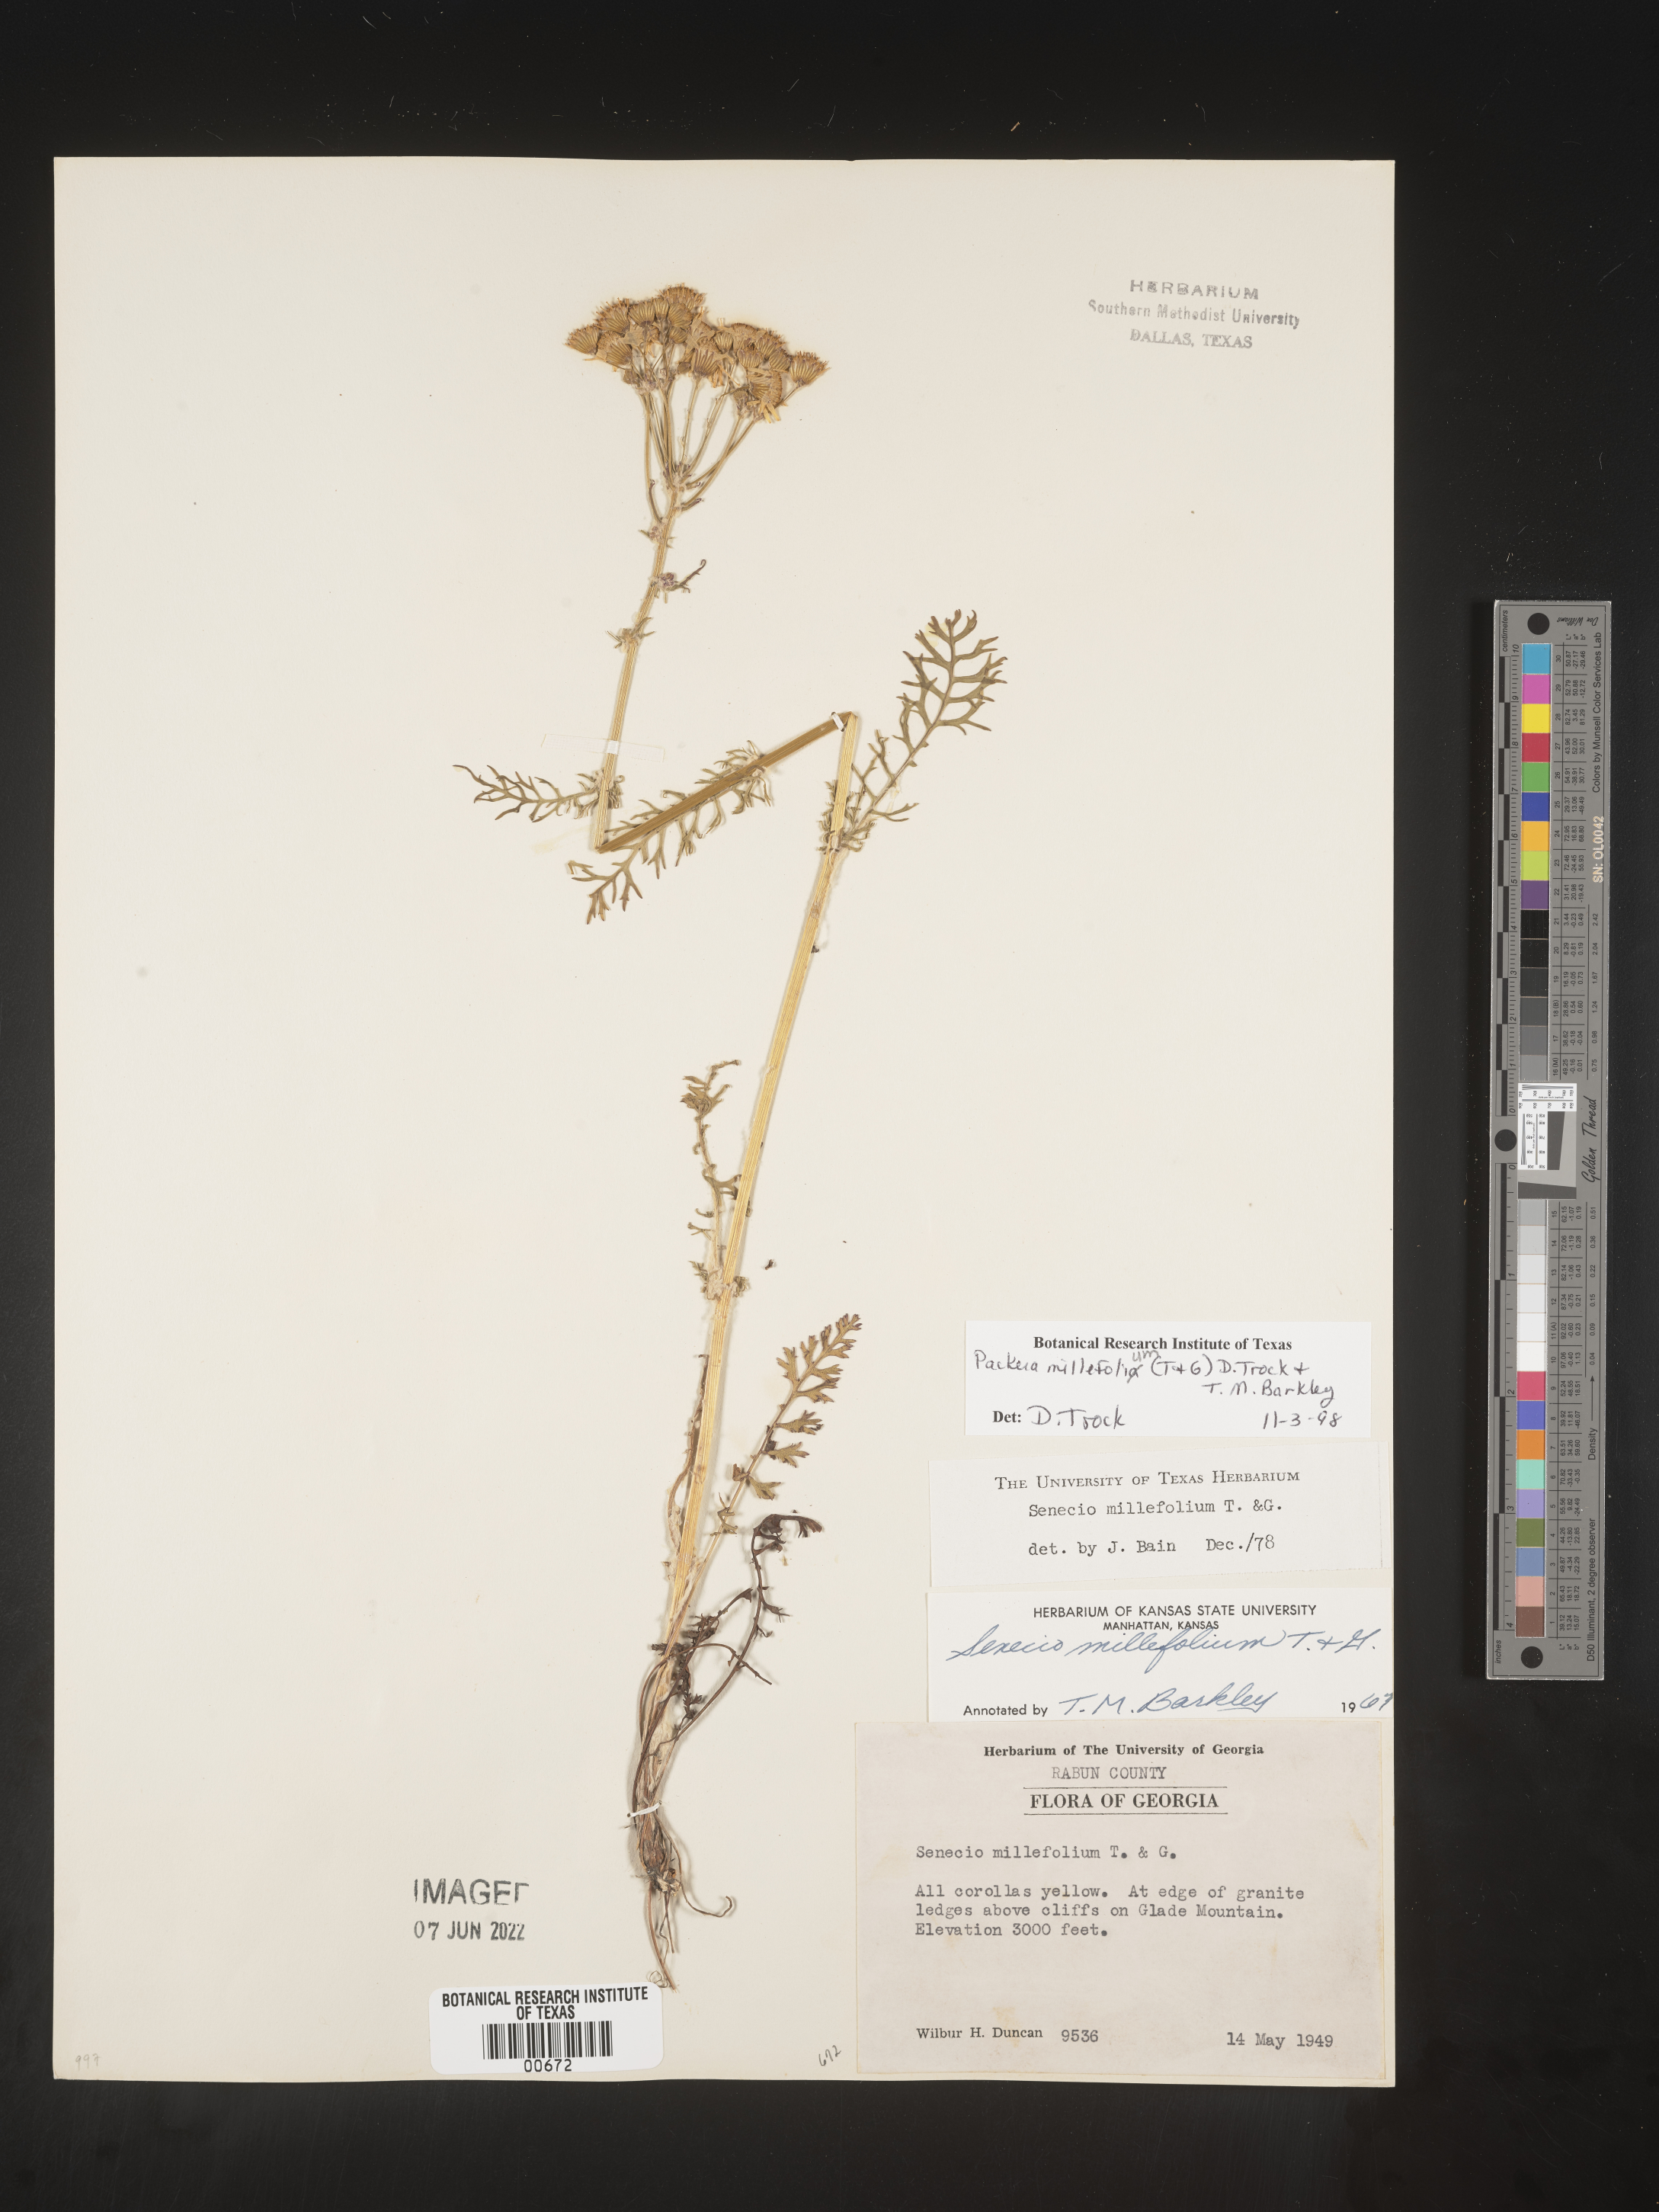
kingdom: Plantae
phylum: Tracheophyta
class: Magnoliopsida
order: Asterales
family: Asteraceae
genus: Packera
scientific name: Packera millefolia
